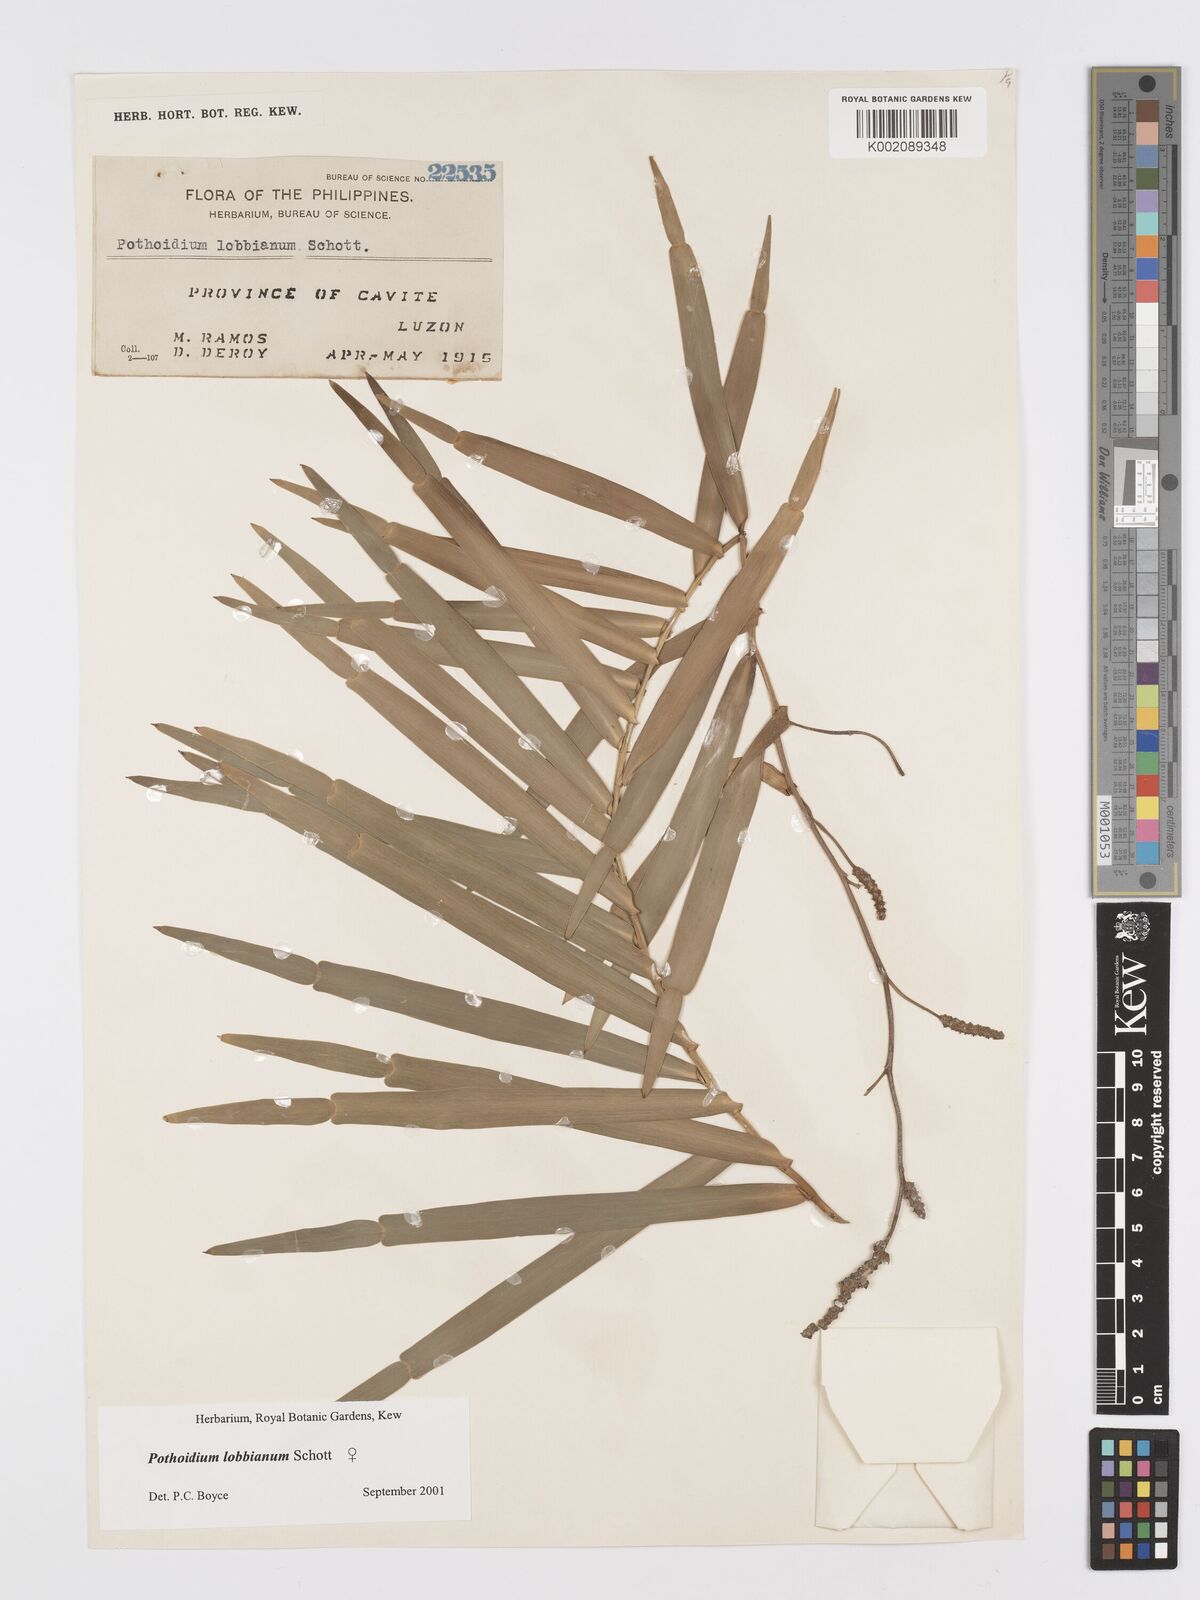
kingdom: Plantae
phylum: Tracheophyta
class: Liliopsida
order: Alismatales
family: Araceae
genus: Pothoidium
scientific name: Pothoidium lobbianum
